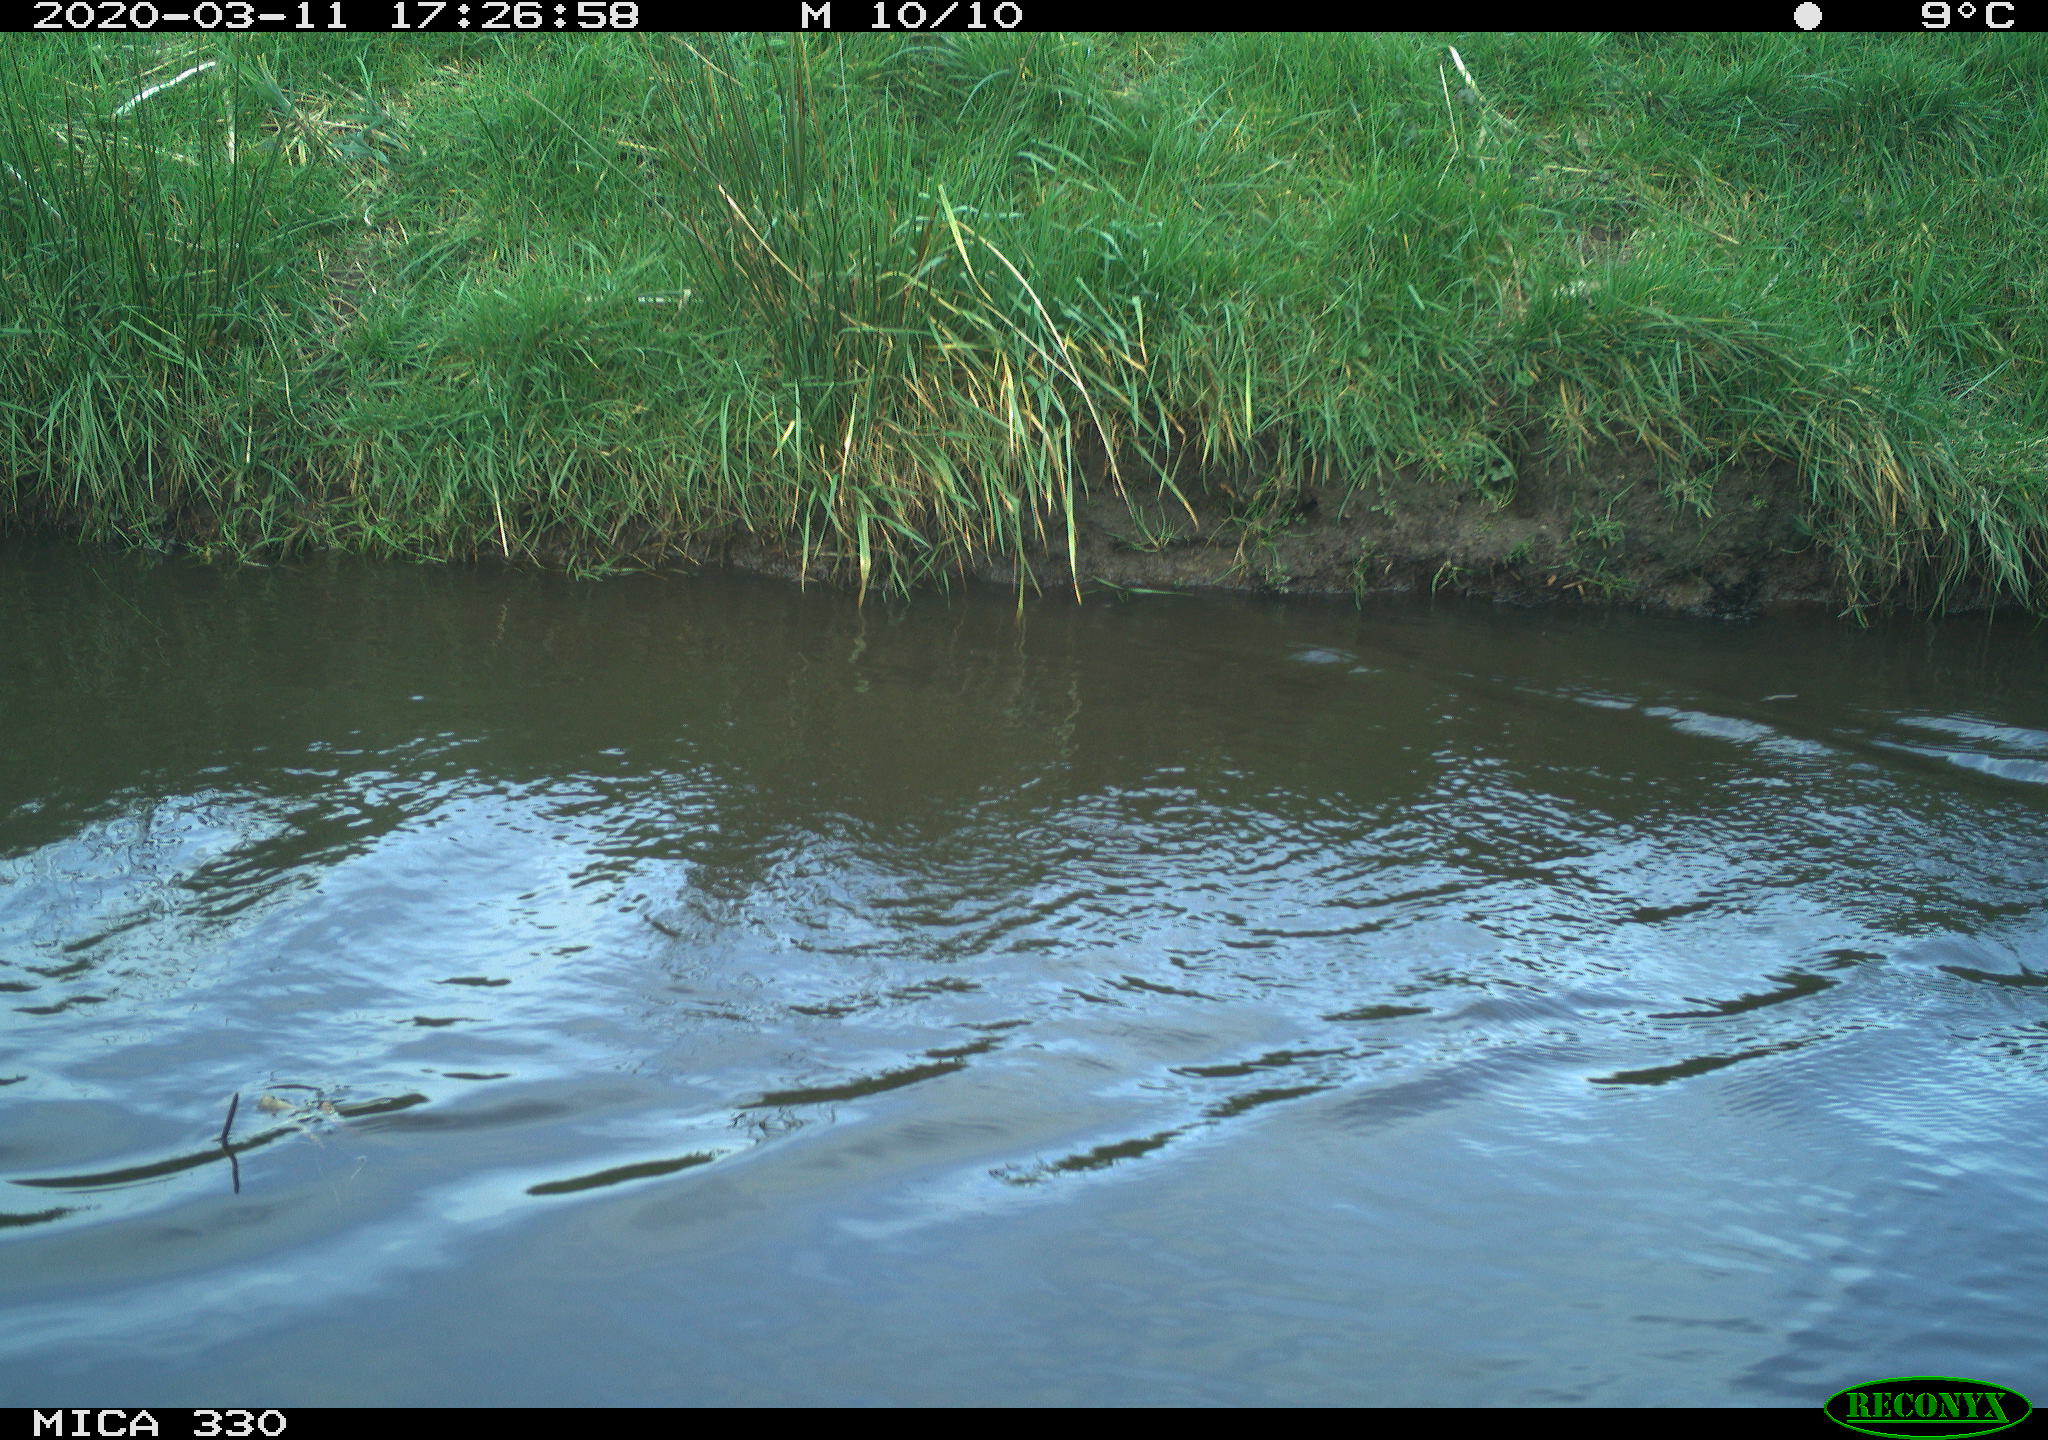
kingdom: Animalia
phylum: Chordata
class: Aves
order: Anseriformes
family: Anatidae
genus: Anas
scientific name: Anas platyrhynchos
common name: Mallard
